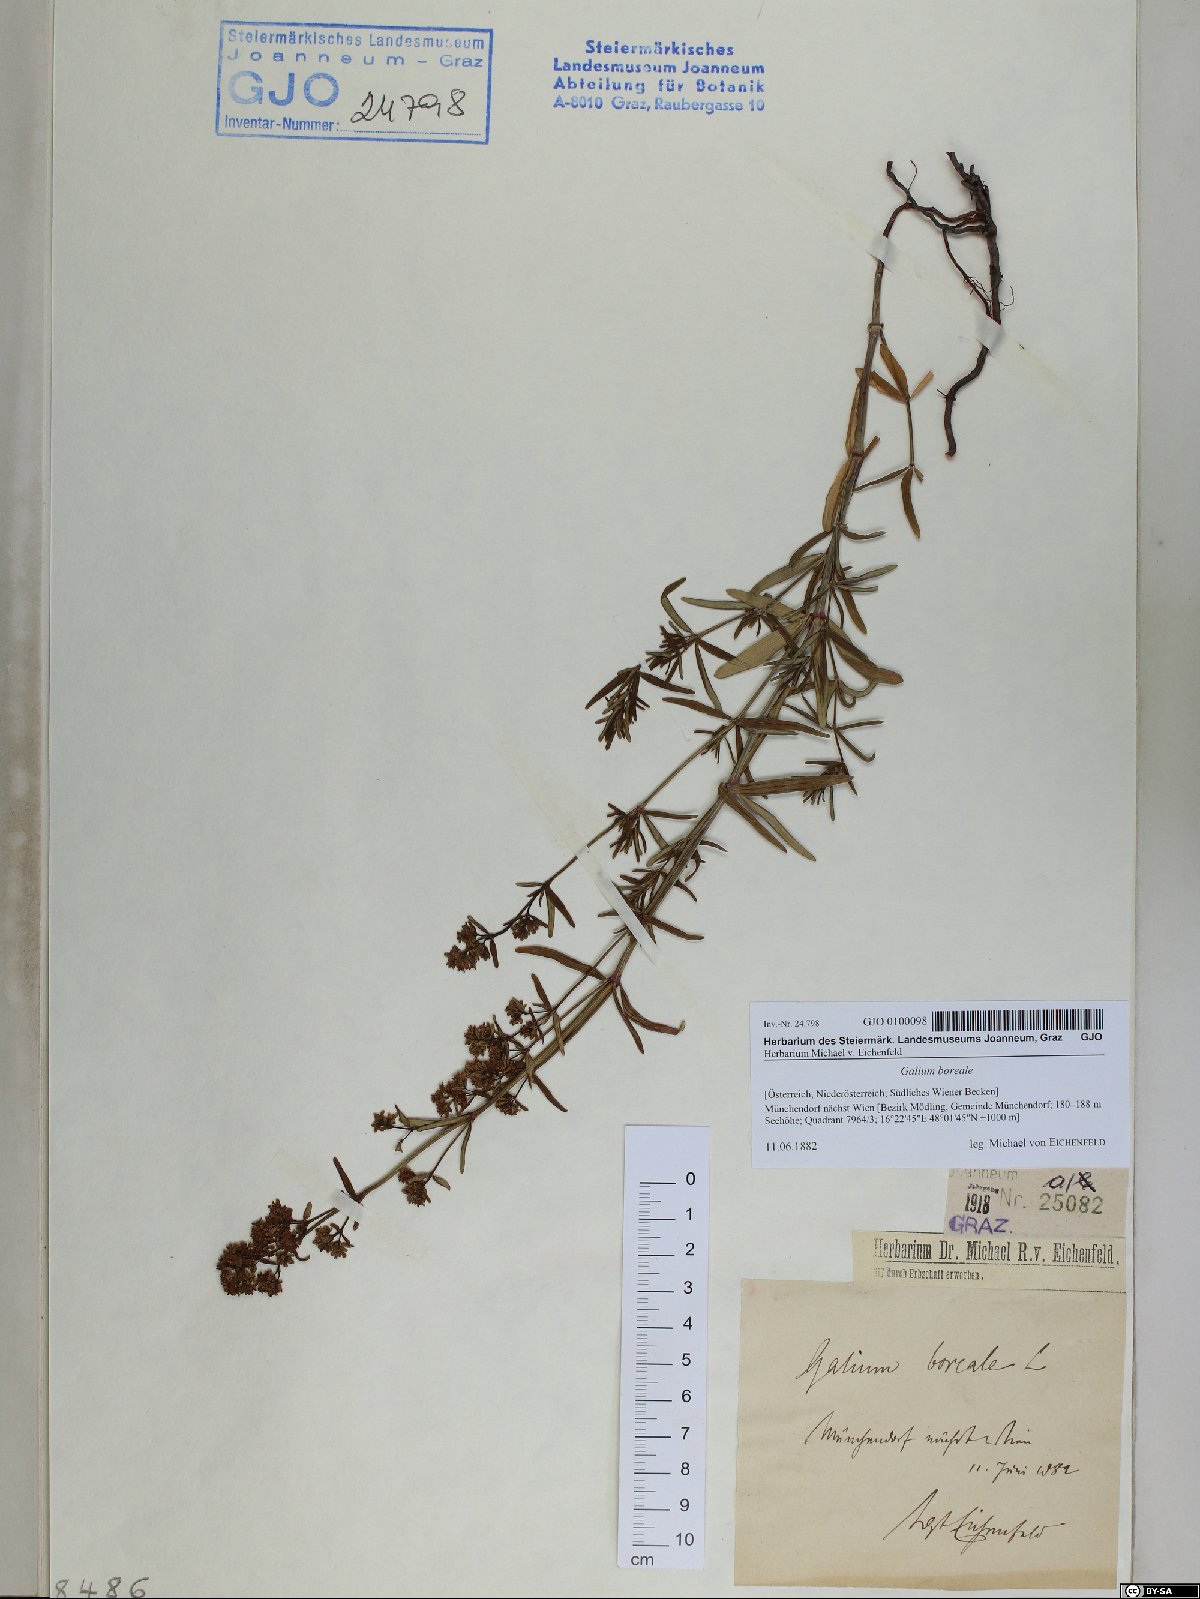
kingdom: Plantae
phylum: Tracheophyta
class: Magnoliopsida
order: Gentianales
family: Rubiaceae
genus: Galium
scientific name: Galium boreale
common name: Northern bedstraw
